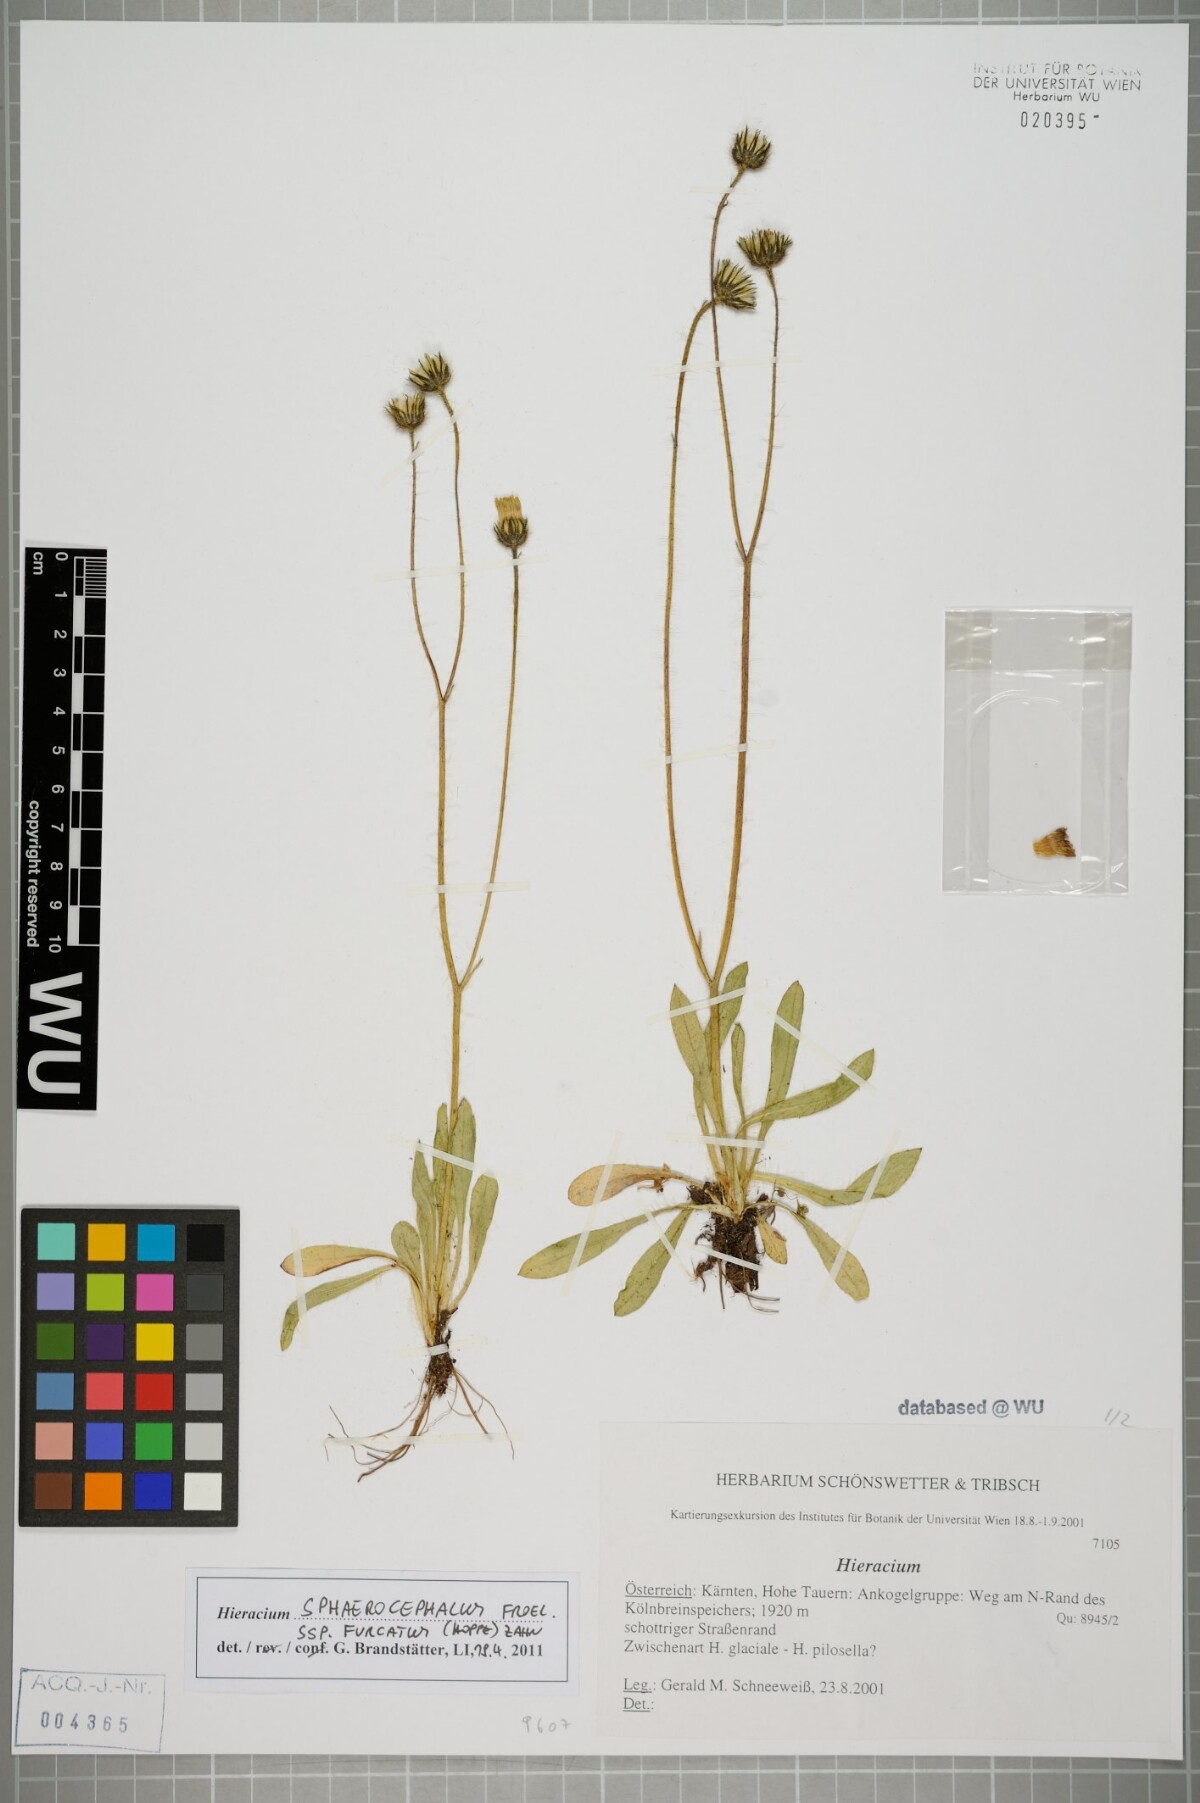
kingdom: Plantae
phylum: Tracheophyta
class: Magnoliopsida
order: Asterales
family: Asteraceae
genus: Pilosella
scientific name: Pilosella sphaerocephala
